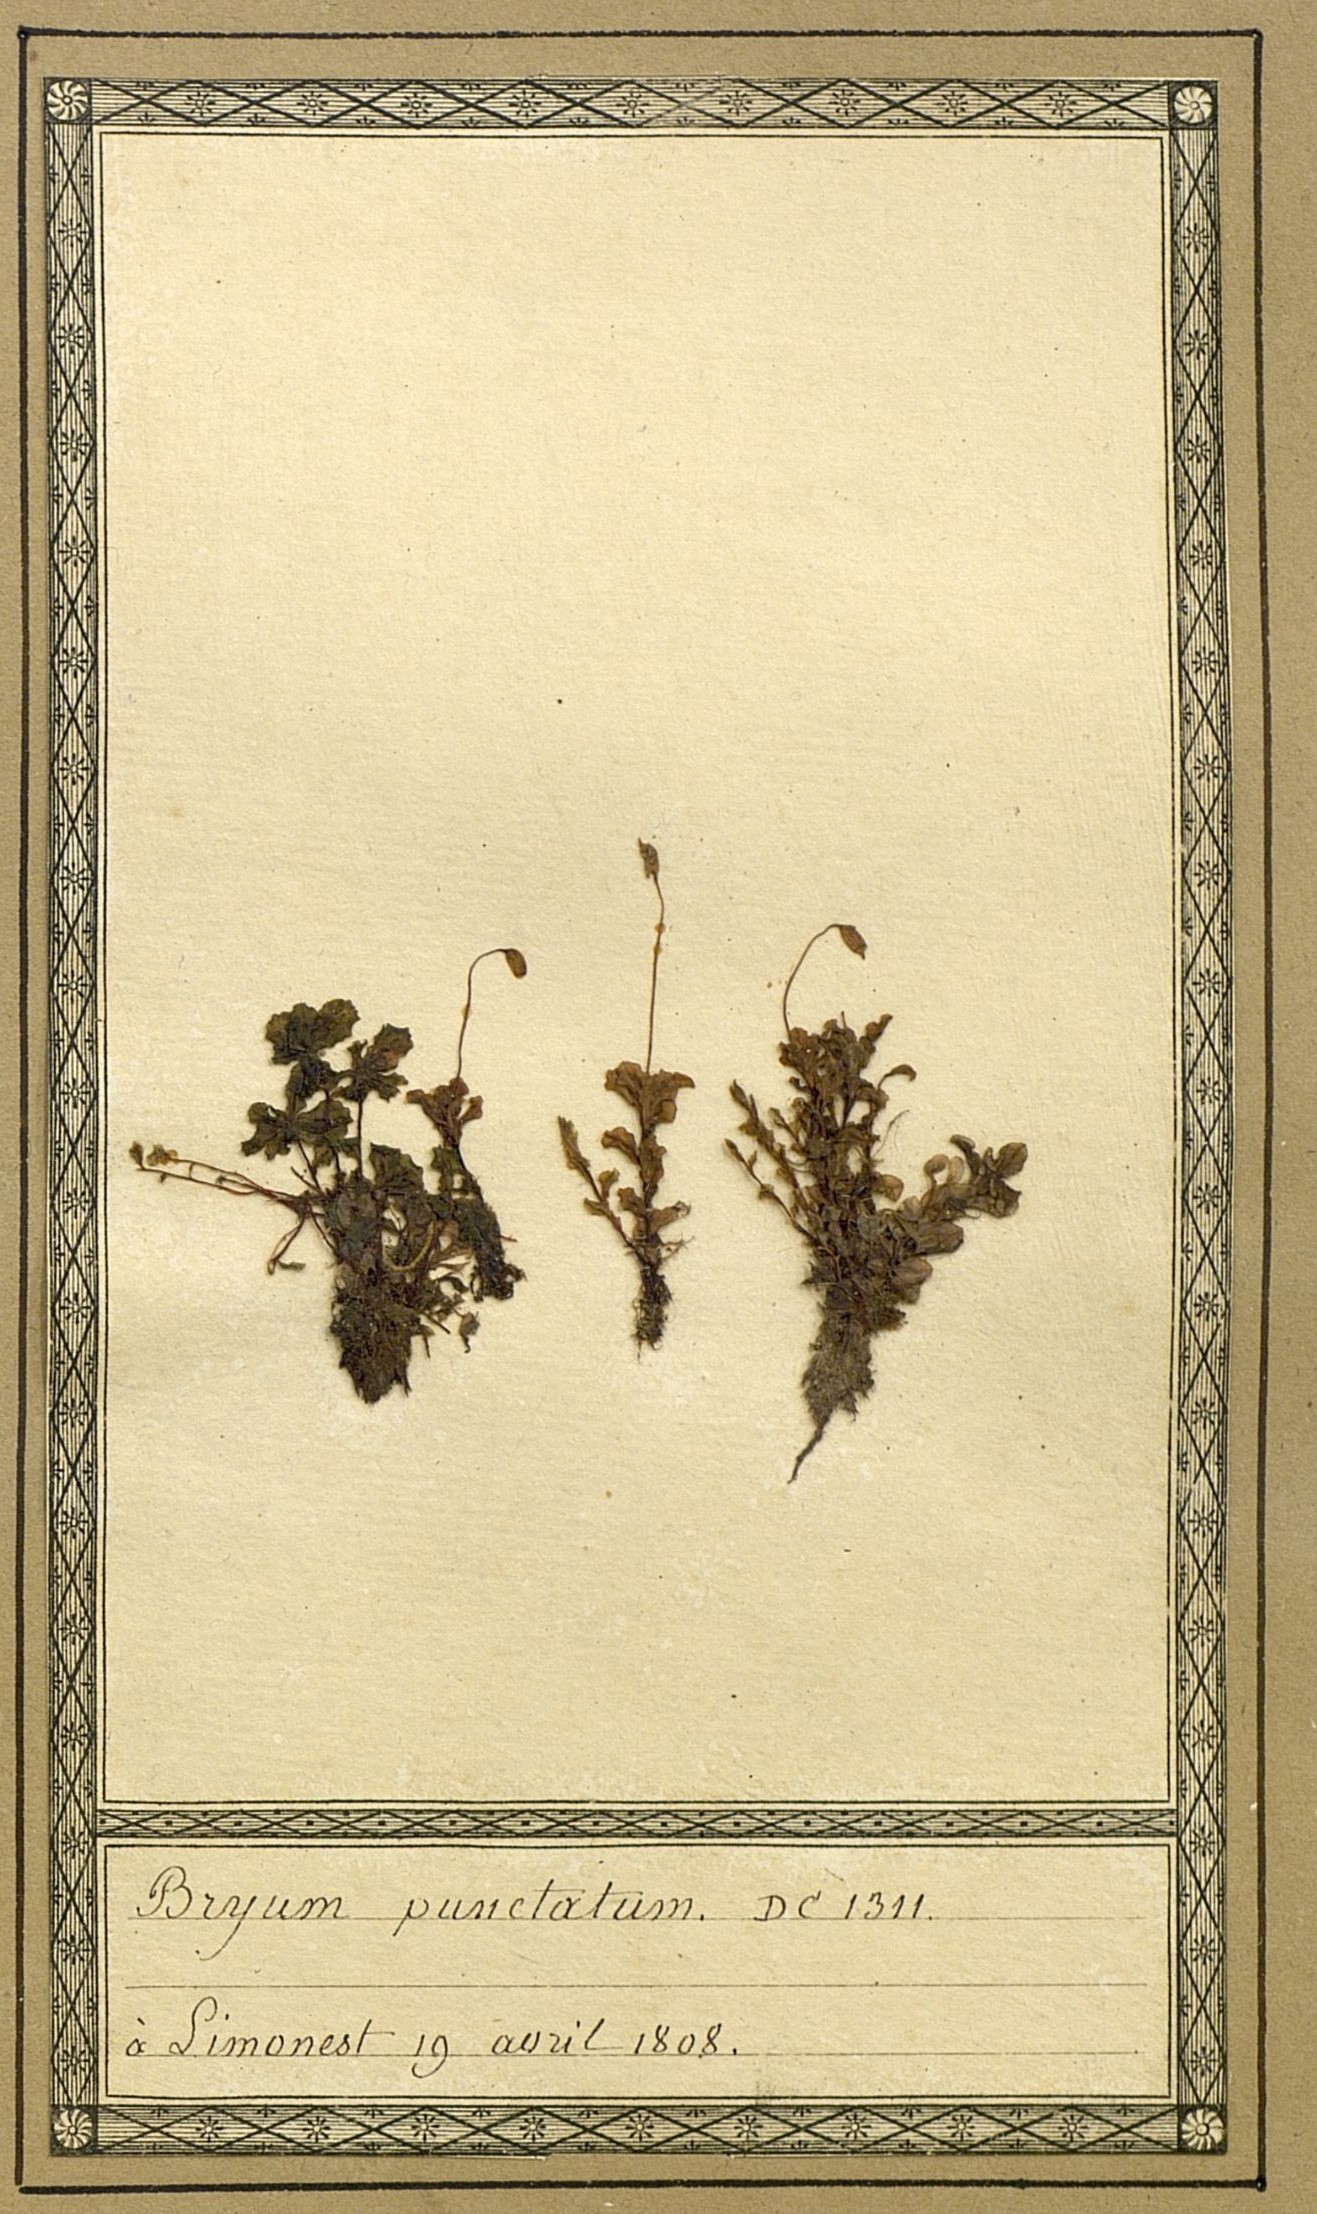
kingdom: Plantae
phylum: Bryophyta
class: Bryopsida
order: Bryales
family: Mniaceae
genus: Rhizomnium
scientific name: Rhizomnium punctatum
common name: Dotted leafy moss
